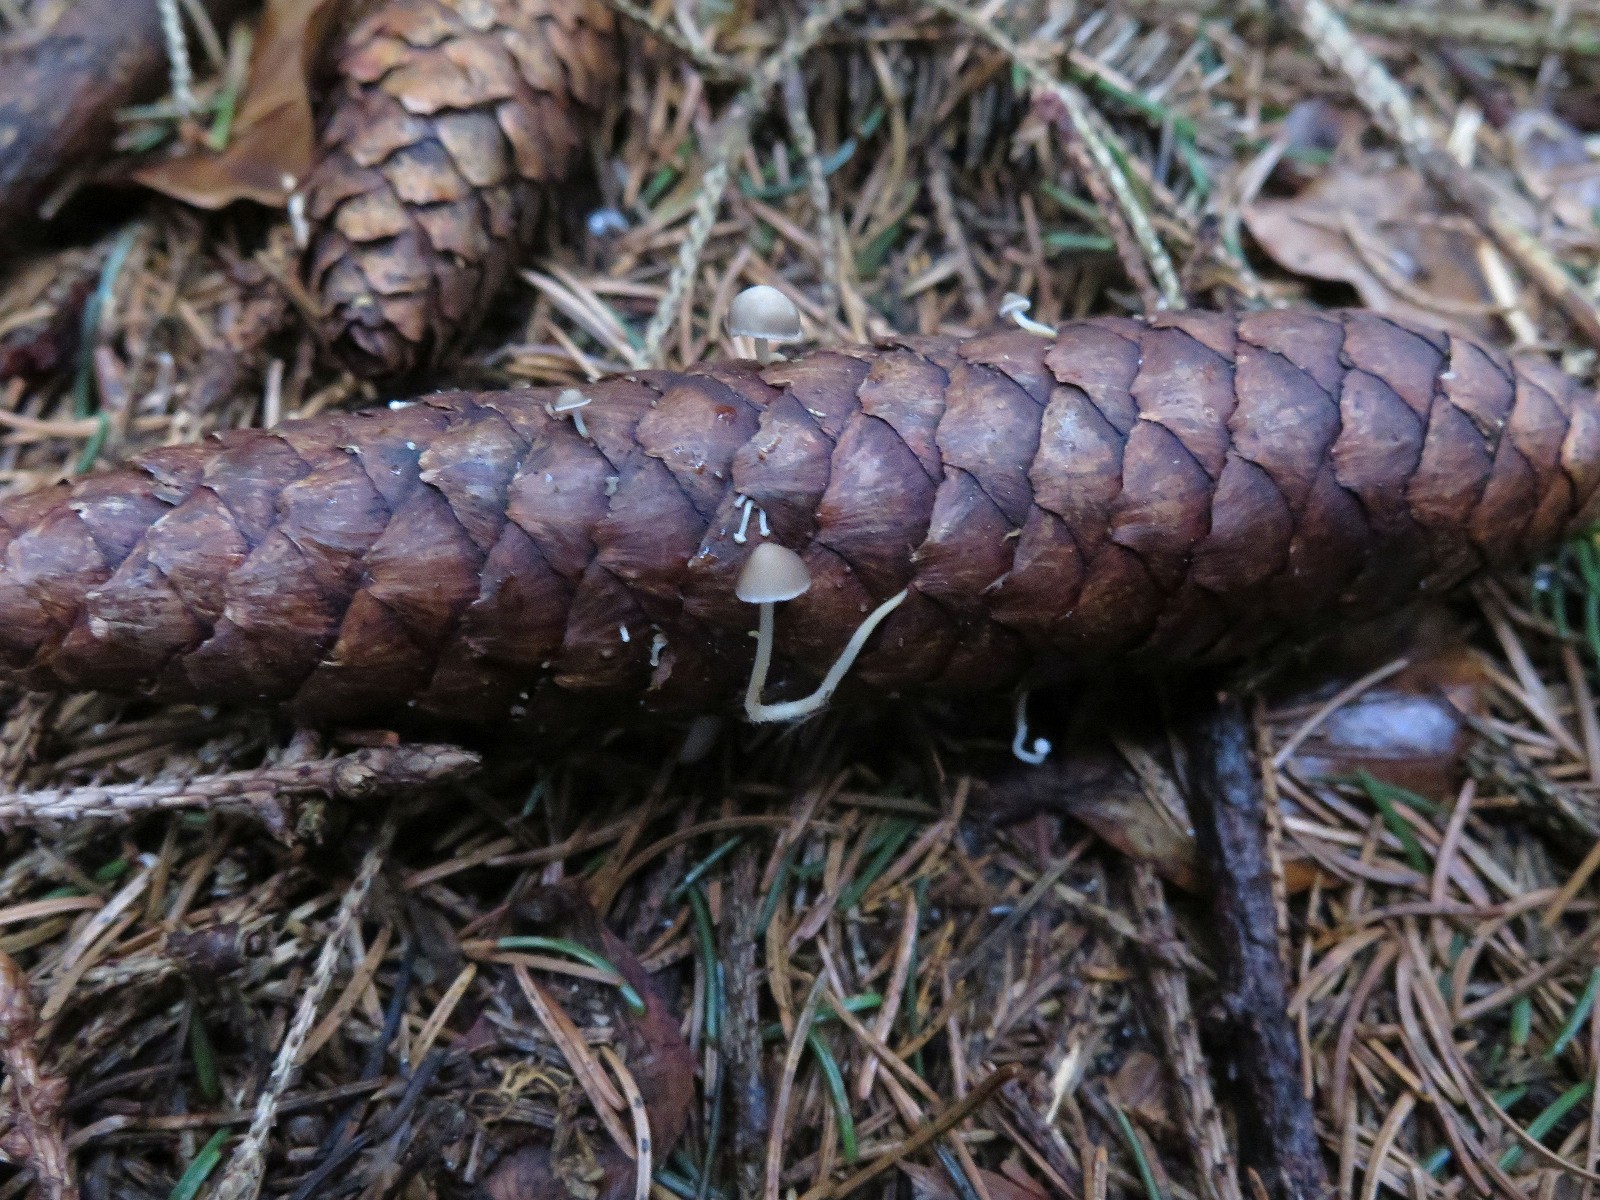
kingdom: Fungi
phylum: Basidiomycota
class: Agaricomycetes
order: Agaricales
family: Physalacriaceae
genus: Strobilurus
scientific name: Strobilurus esculentus
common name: gran-koglehat
